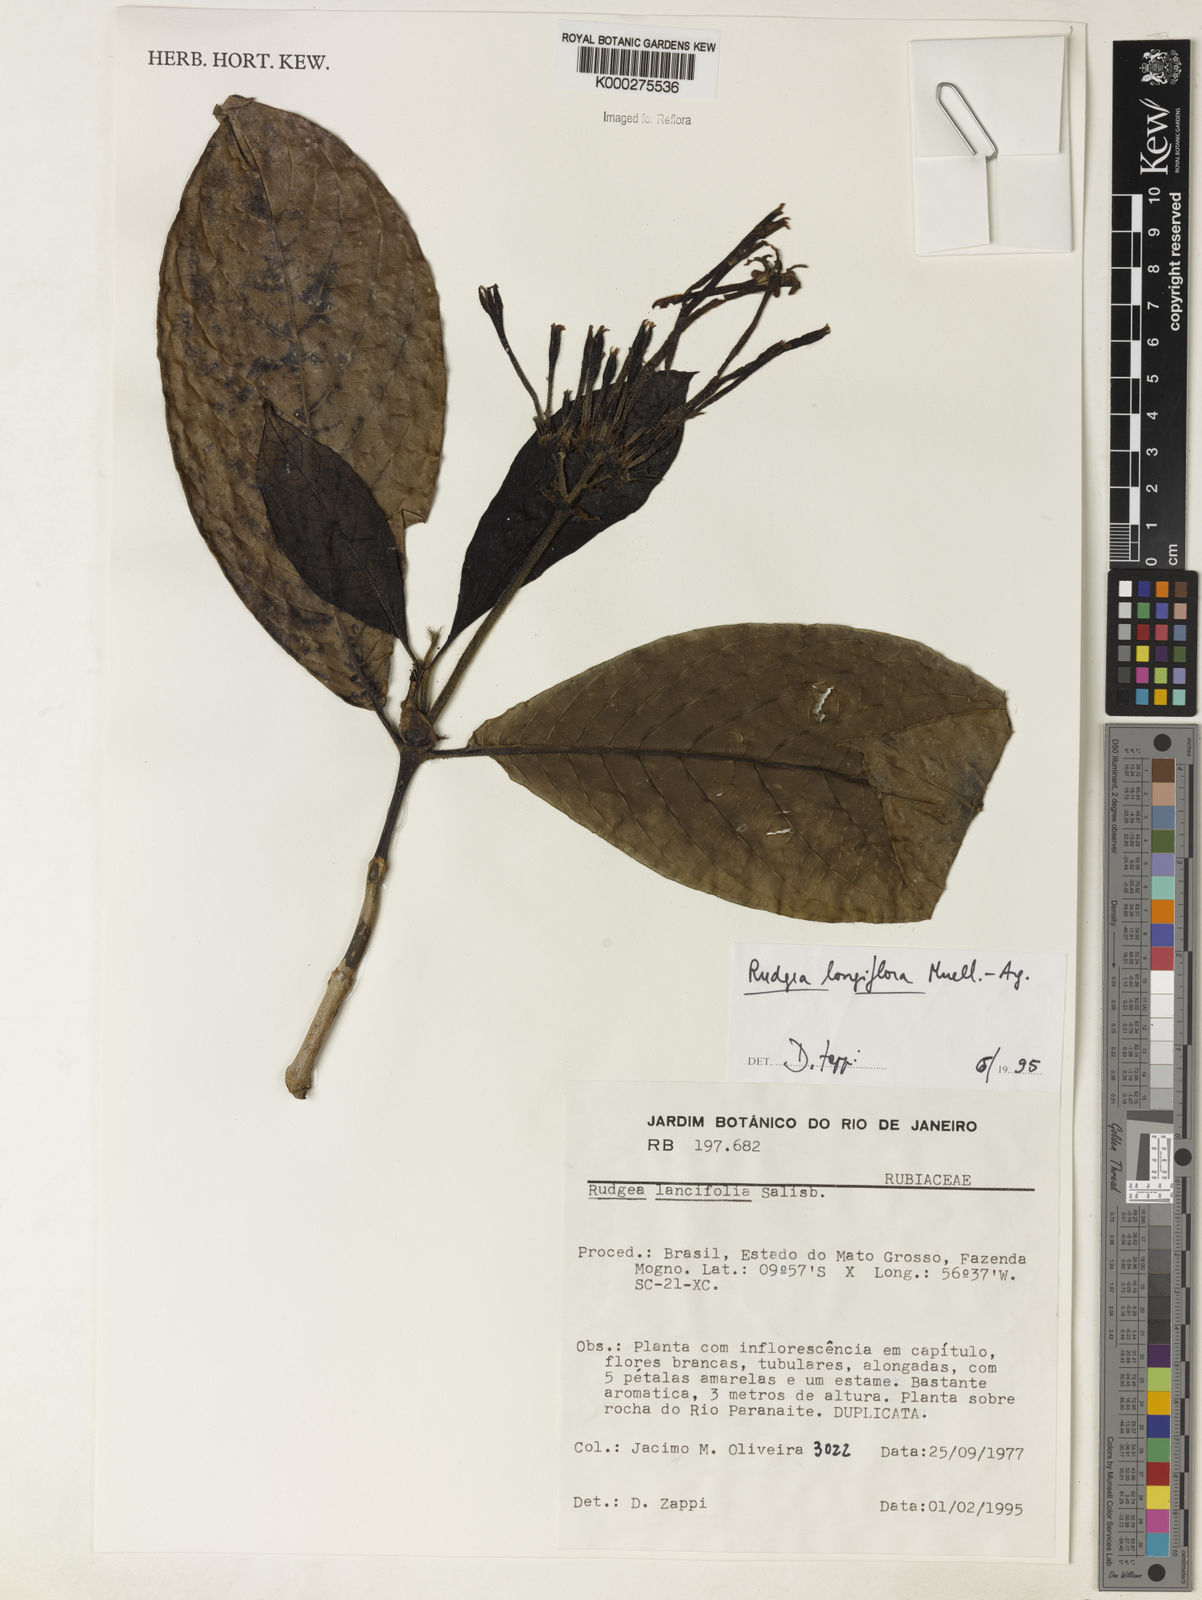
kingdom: Plantae
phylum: Tracheophyta
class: Magnoliopsida
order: Gentianales
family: Rubiaceae
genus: Rudgea
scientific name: Rudgea longiflora
